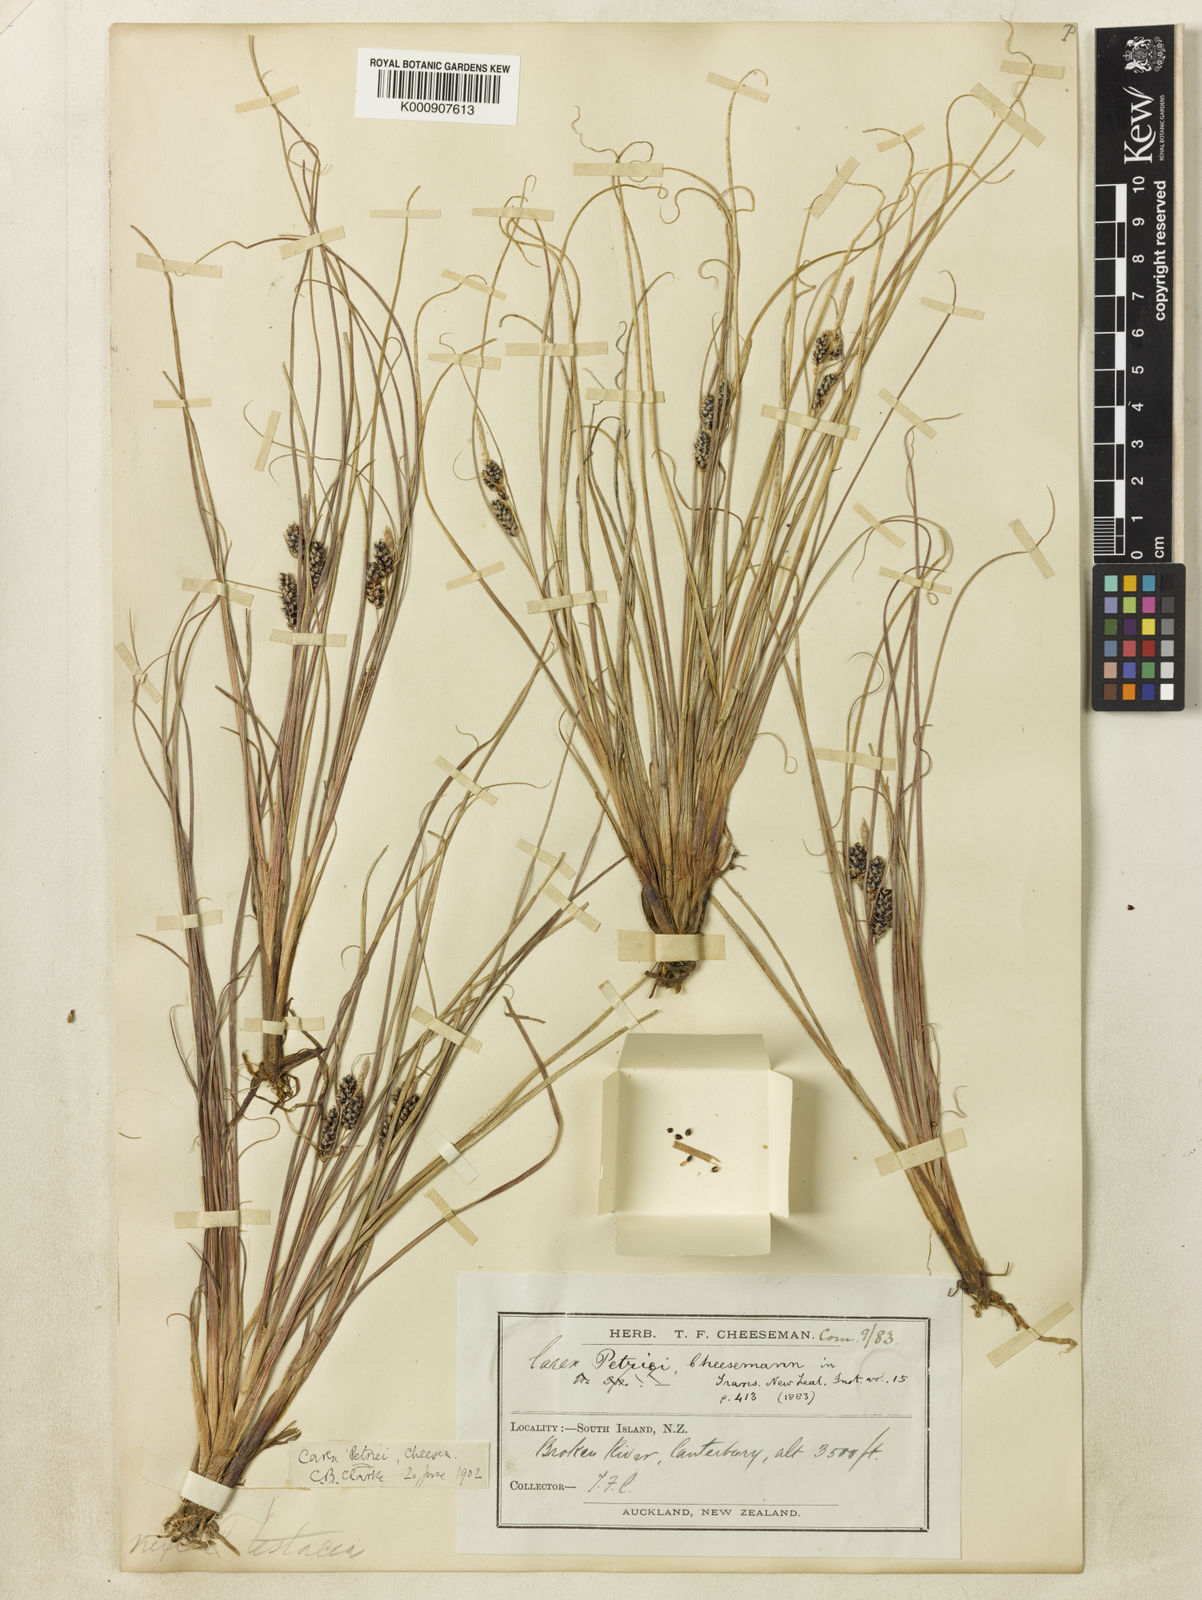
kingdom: Plantae
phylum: Tracheophyta
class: Liliopsida
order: Poales
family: Cyperaceae
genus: Carex
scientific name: Carex petriei
